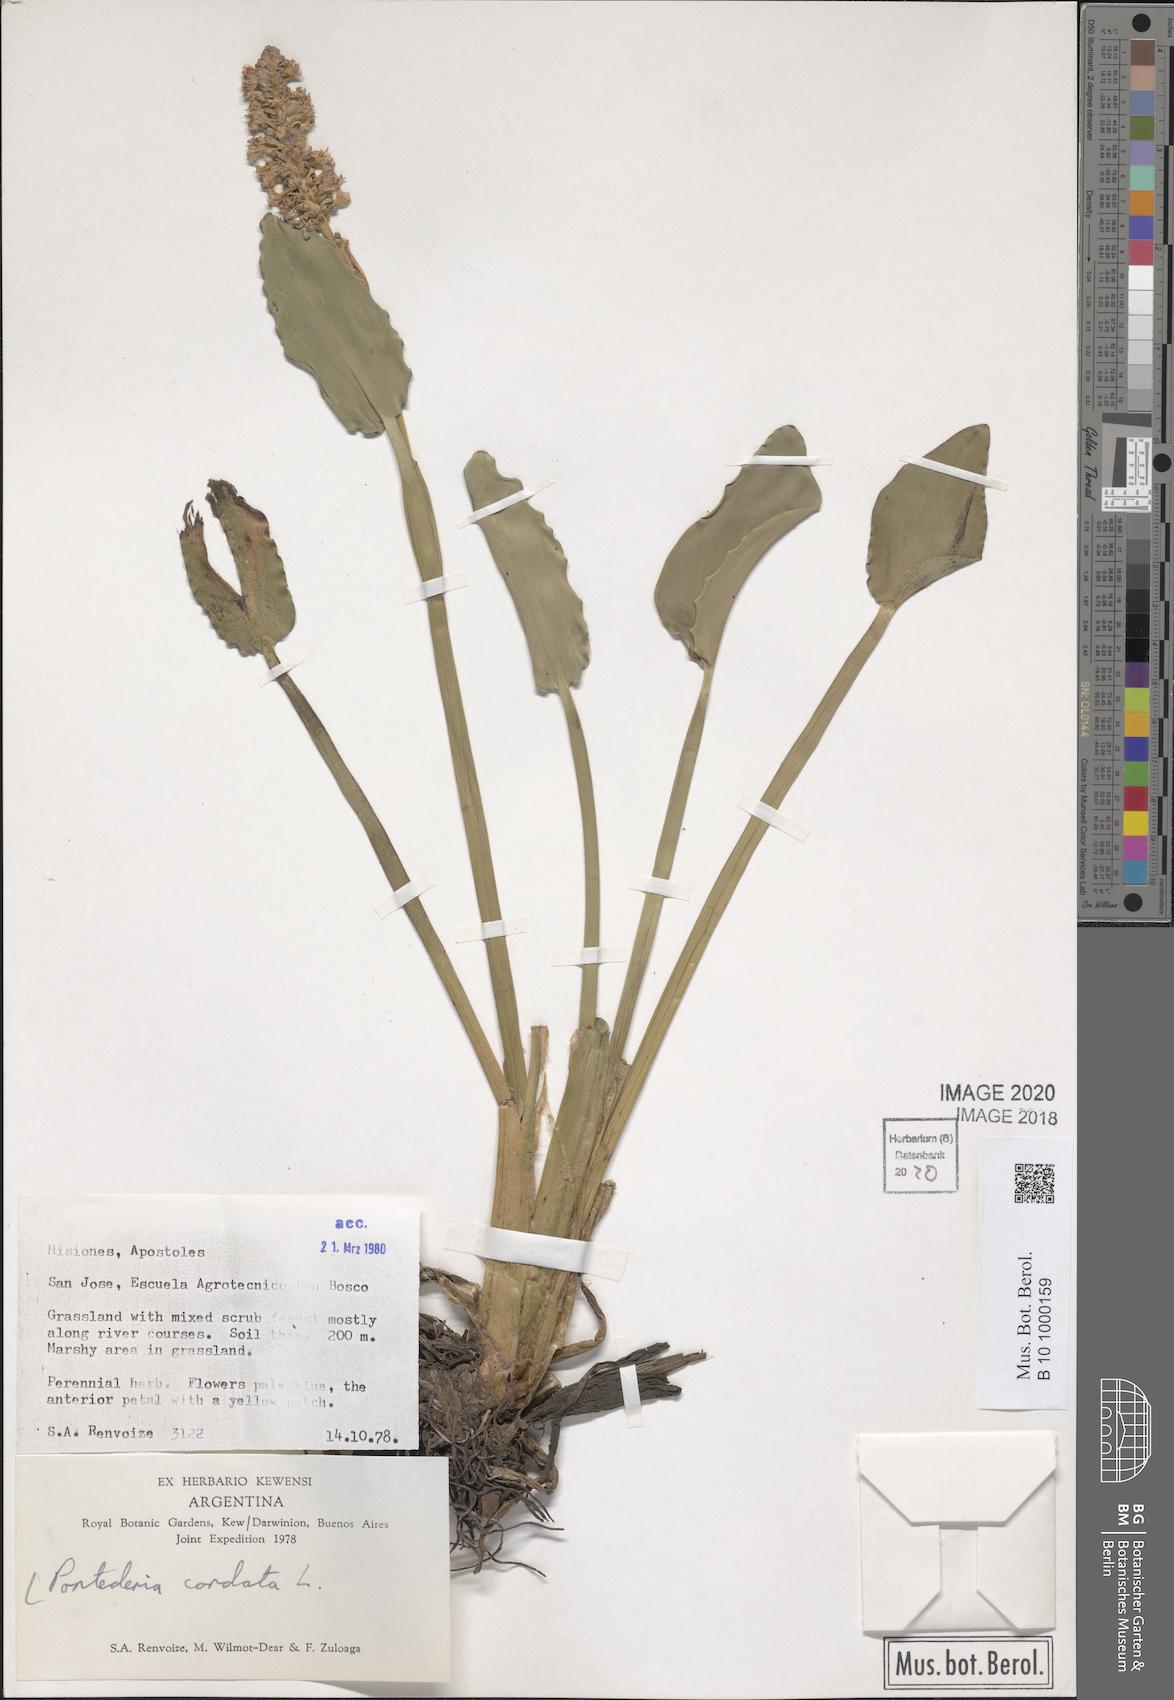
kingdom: Plantae
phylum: Tracheophyta
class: Liliopsida
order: Commelinales
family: Pontederiaceae
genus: Pontederia
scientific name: Pontederia cordata
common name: Pickerelweed
